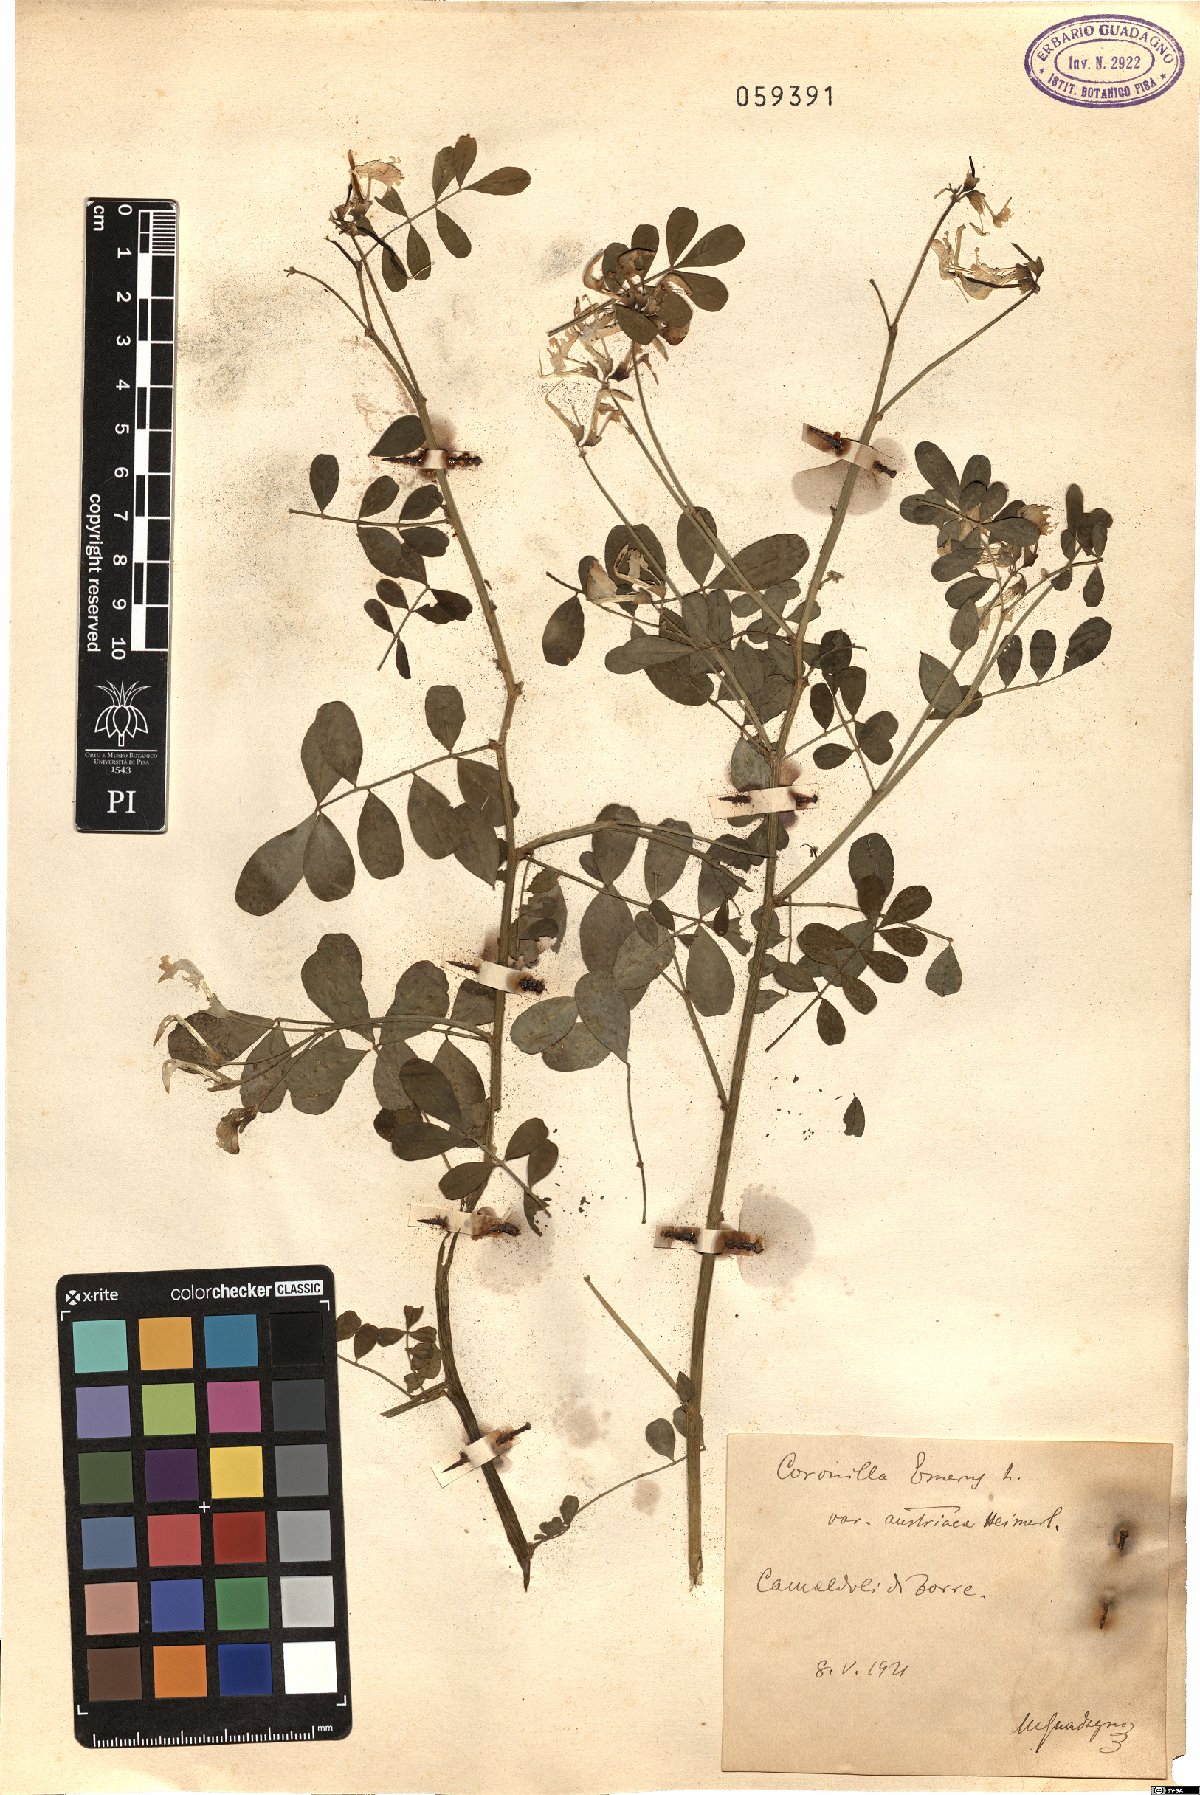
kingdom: Plantae
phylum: Tracheophyta
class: Magnoliopsida
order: Fabales
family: Fabaceae
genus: Coronilla
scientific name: Coronilla emerus
